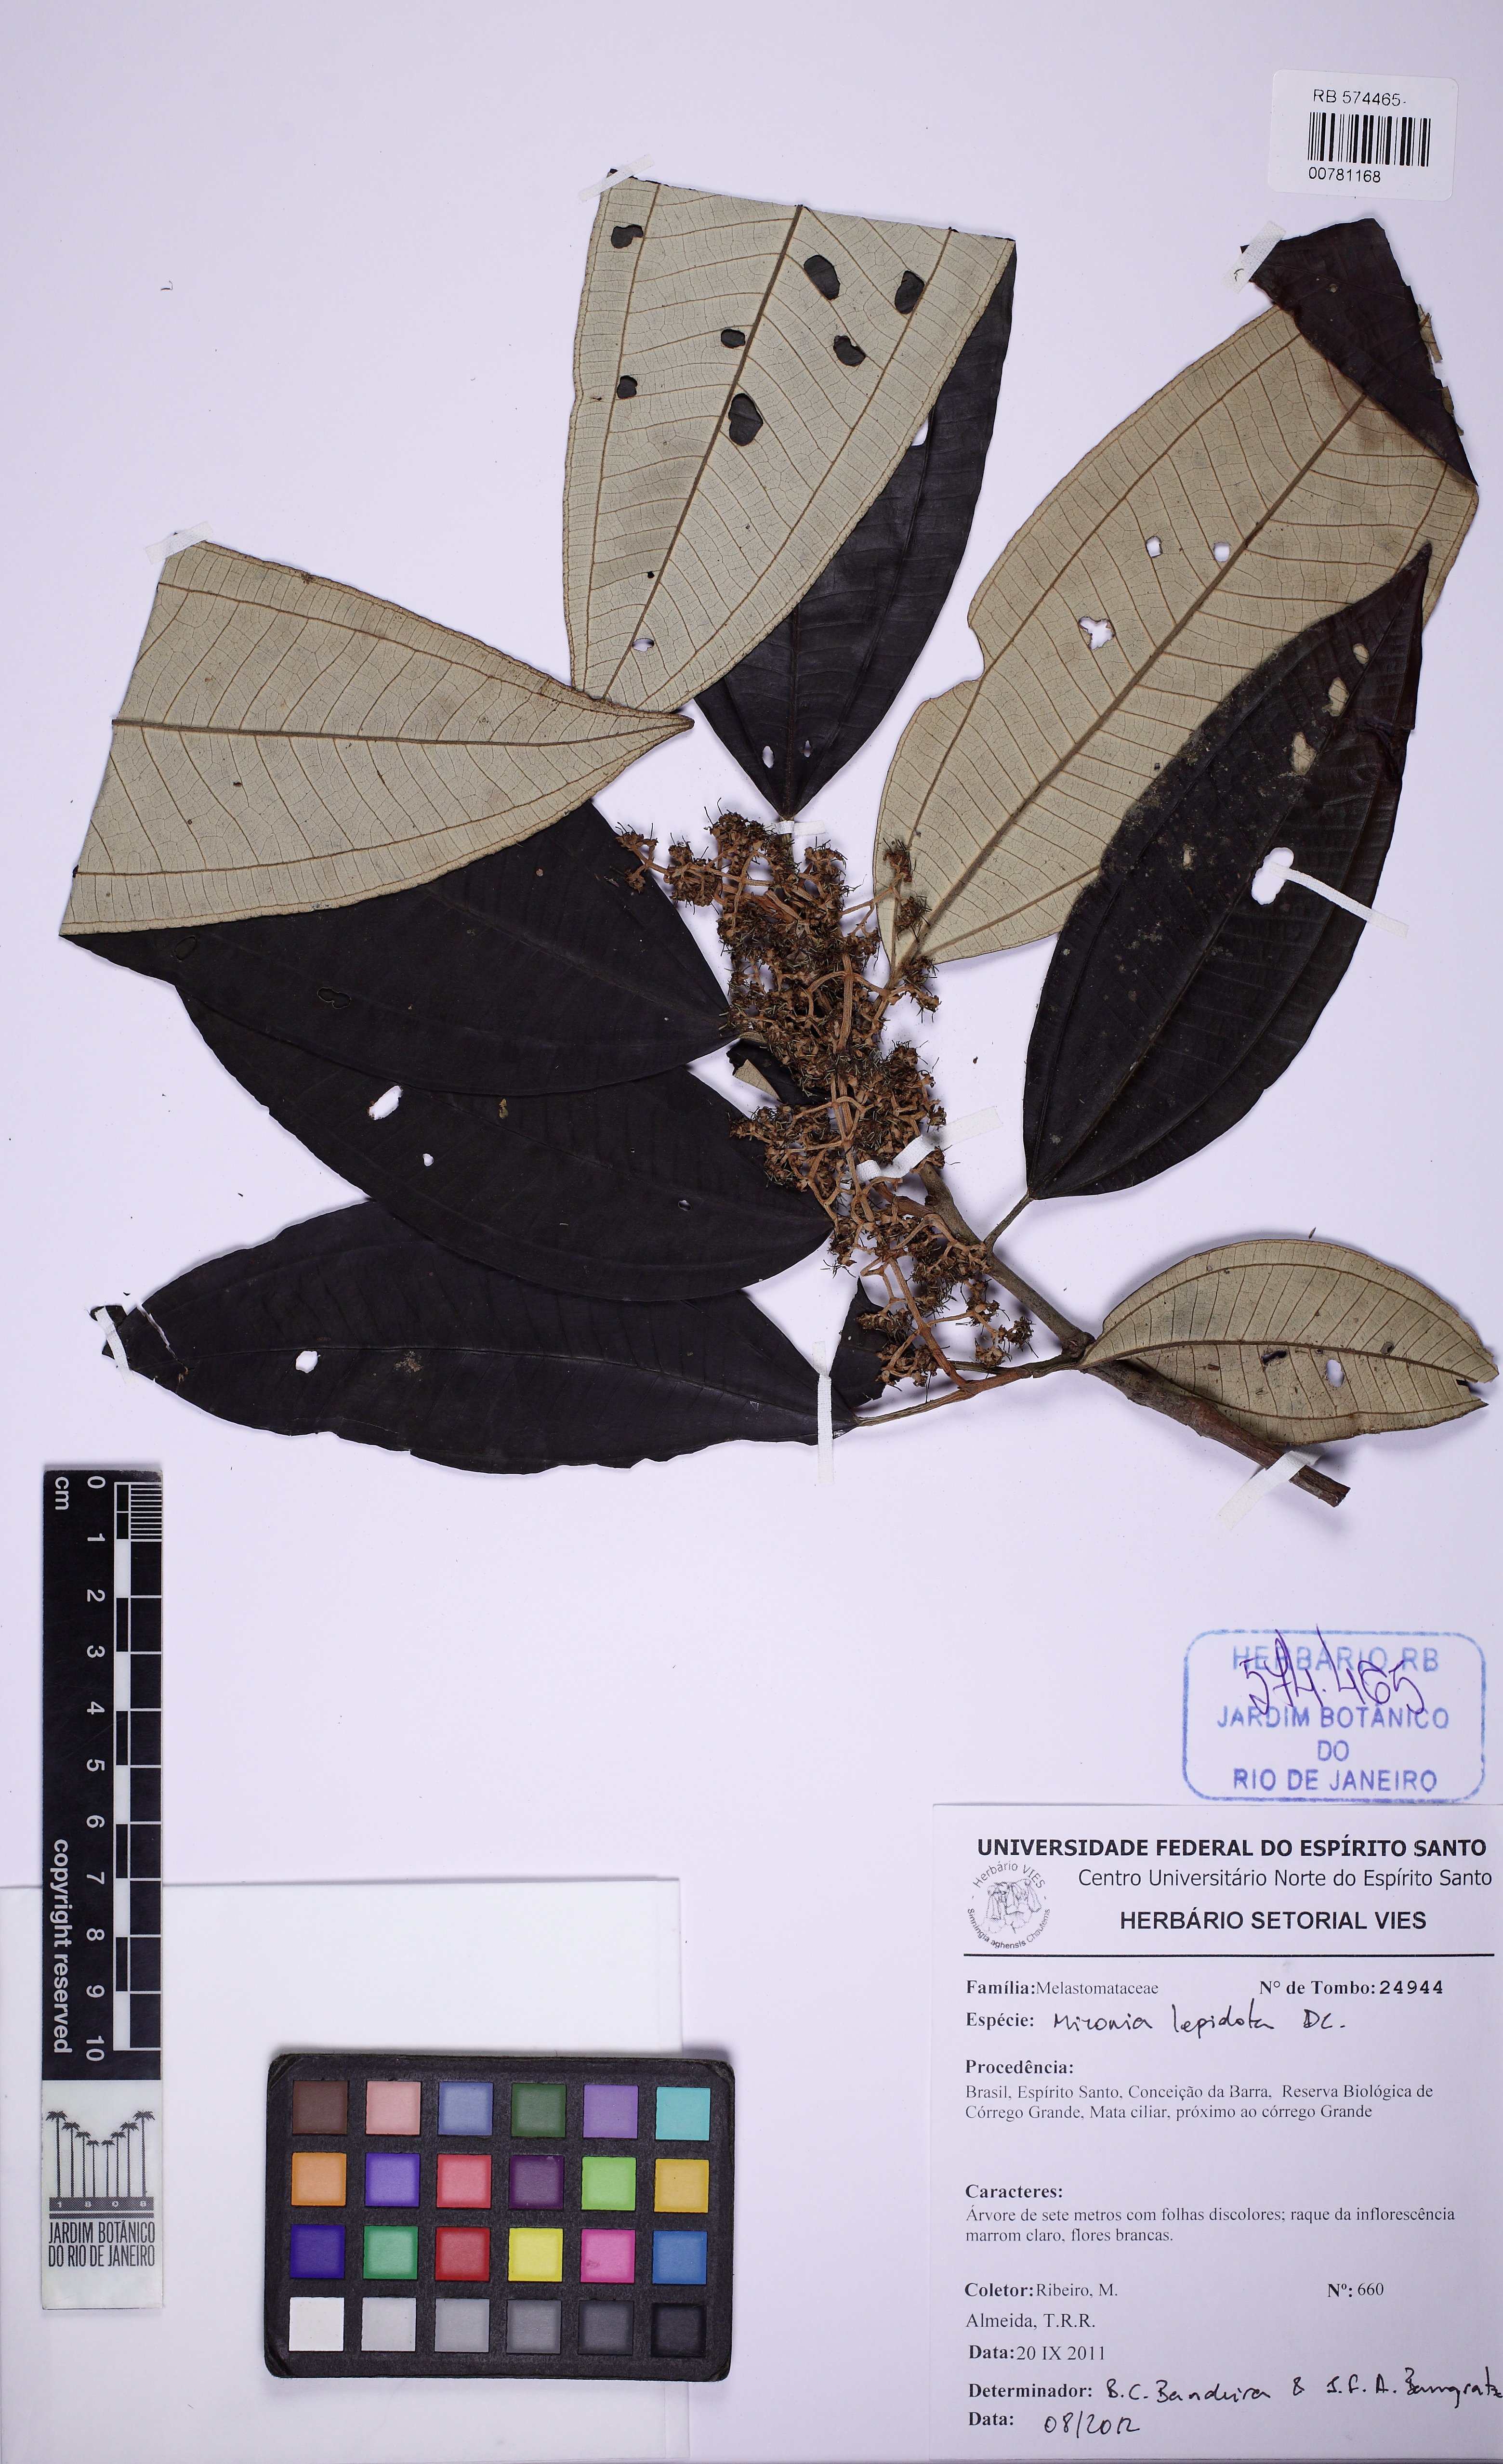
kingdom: Plantae
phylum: Tracheophyta
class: Magnoliopsida
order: Myrtales
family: Melastomataceae
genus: Miconia
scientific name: Miconia lepidota
